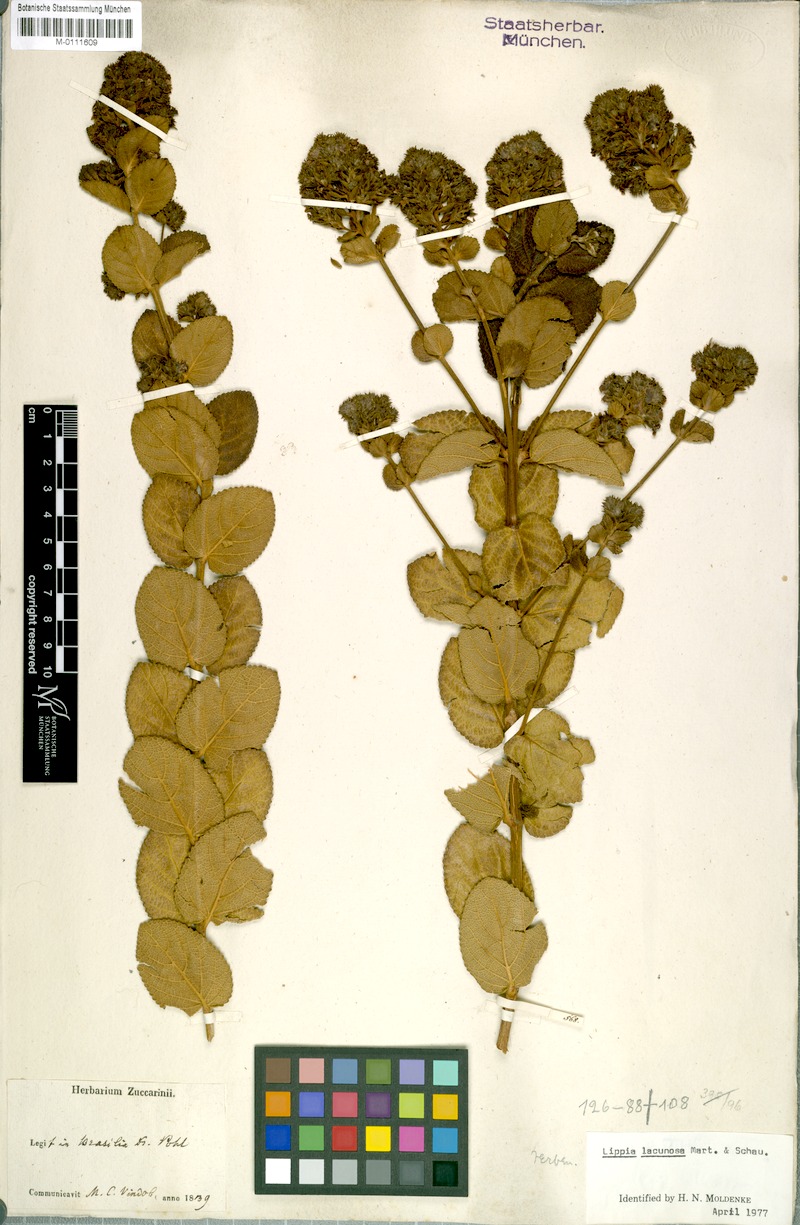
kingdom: Plantae
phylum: Tracheophyta
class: Magnoliopsida
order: Lamiales
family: Verbenaceae
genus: Lippia
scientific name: Lippia lacunosa
